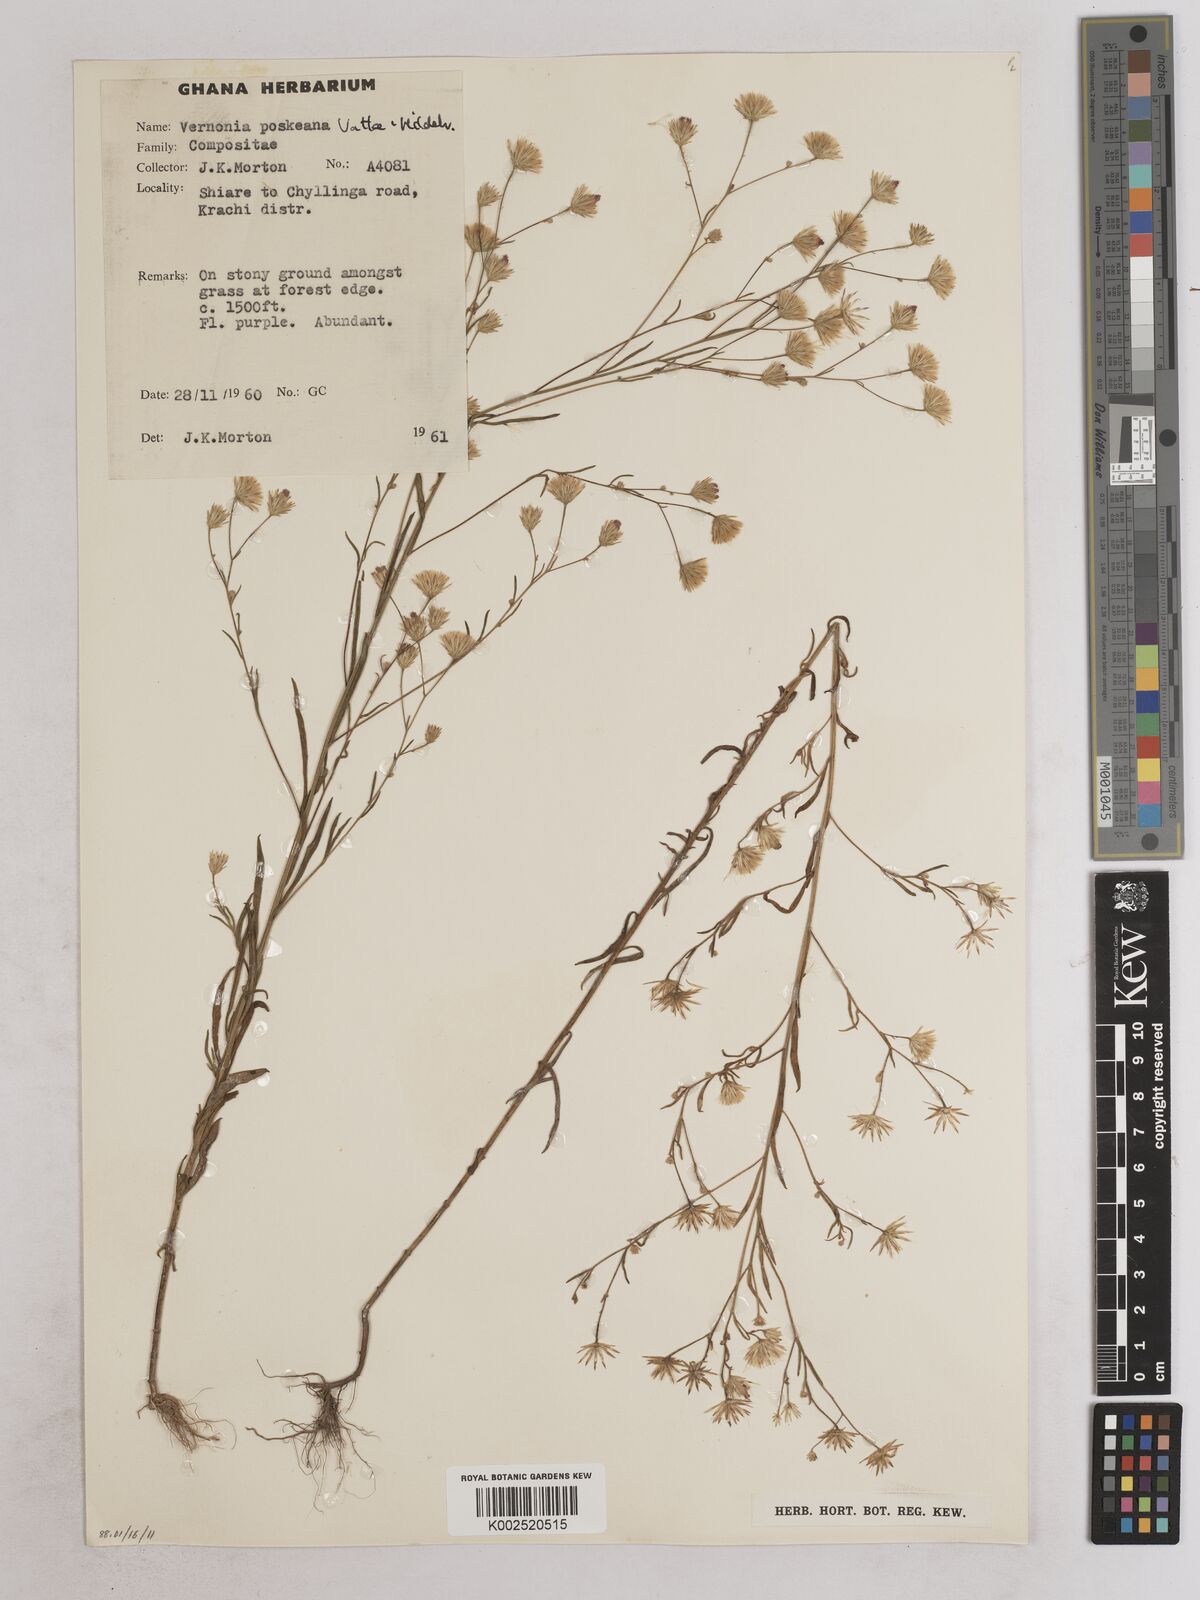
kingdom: Plantae
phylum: Tracheophyta
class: Magnoliopsida
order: Asterales
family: Asteraceae
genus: Crystallopollen
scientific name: Crystallopollen angustifolium
